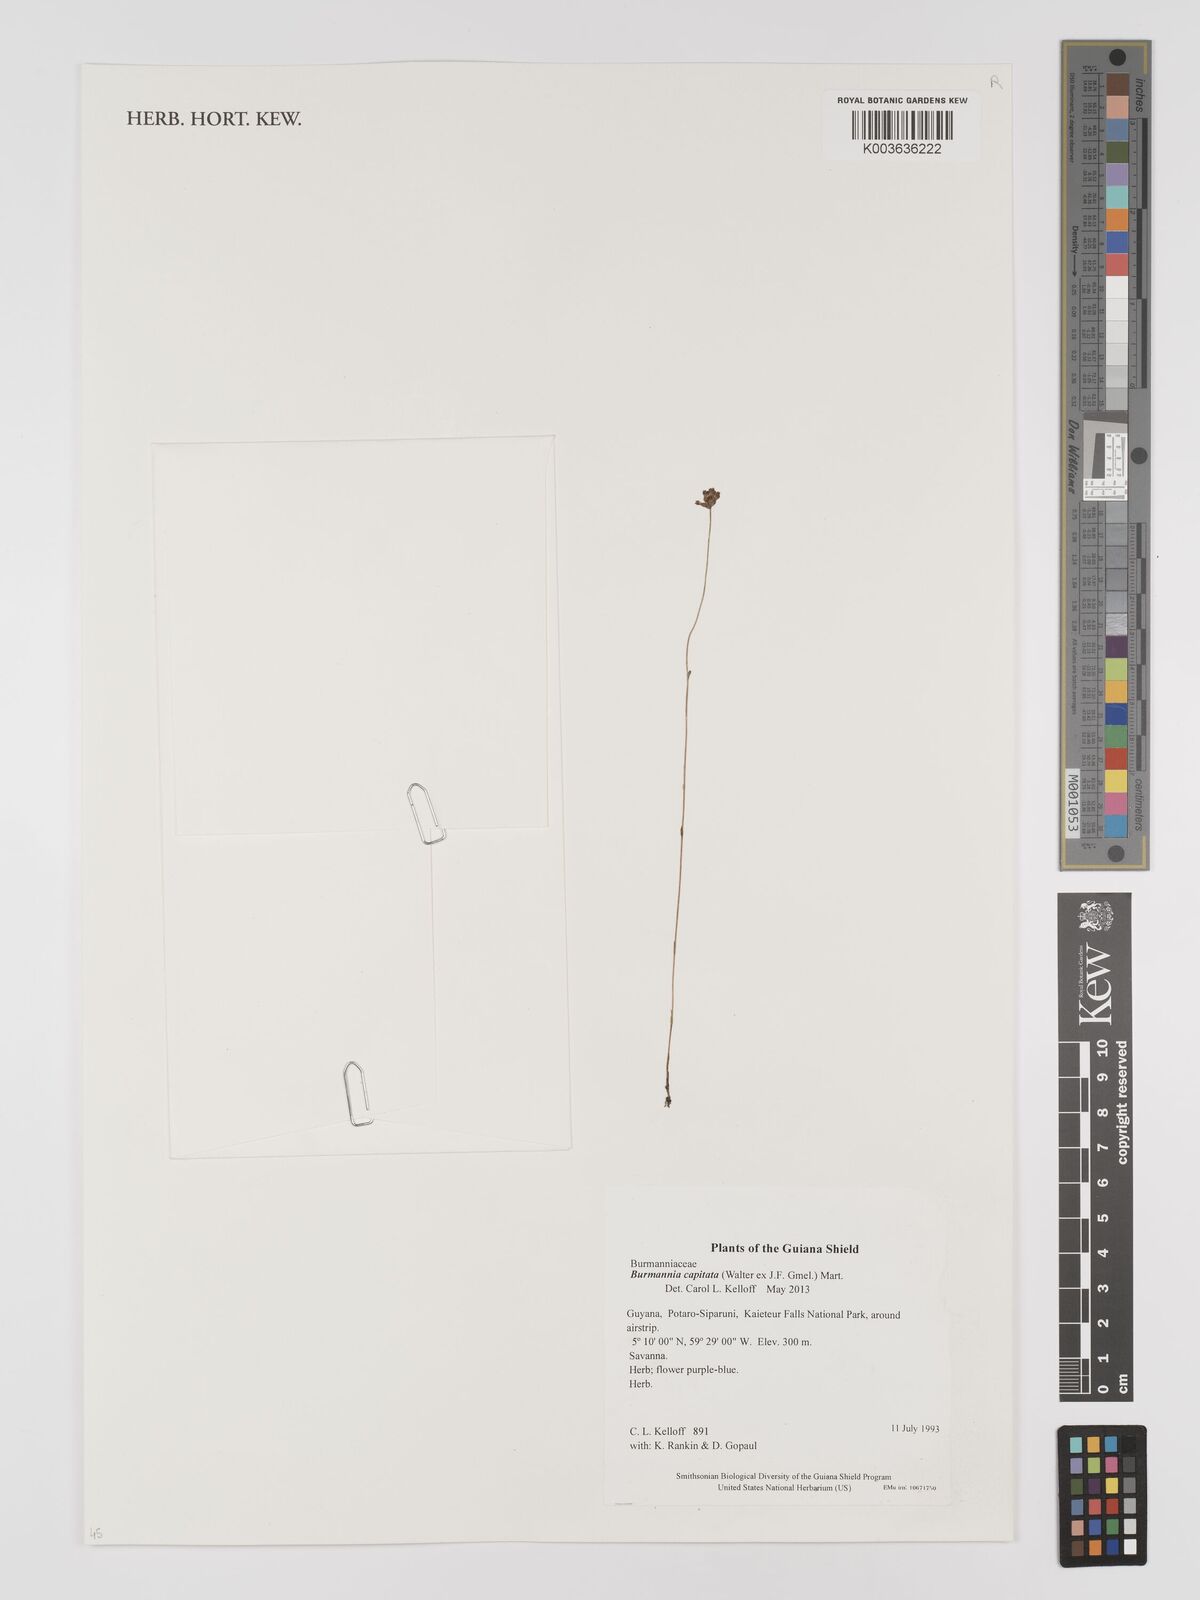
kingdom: Plantae
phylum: Tracheophyta
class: Liliopsida
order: Dioscoreales
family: Burmanniaceae
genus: Burmannia
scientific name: Burmannia capitata
